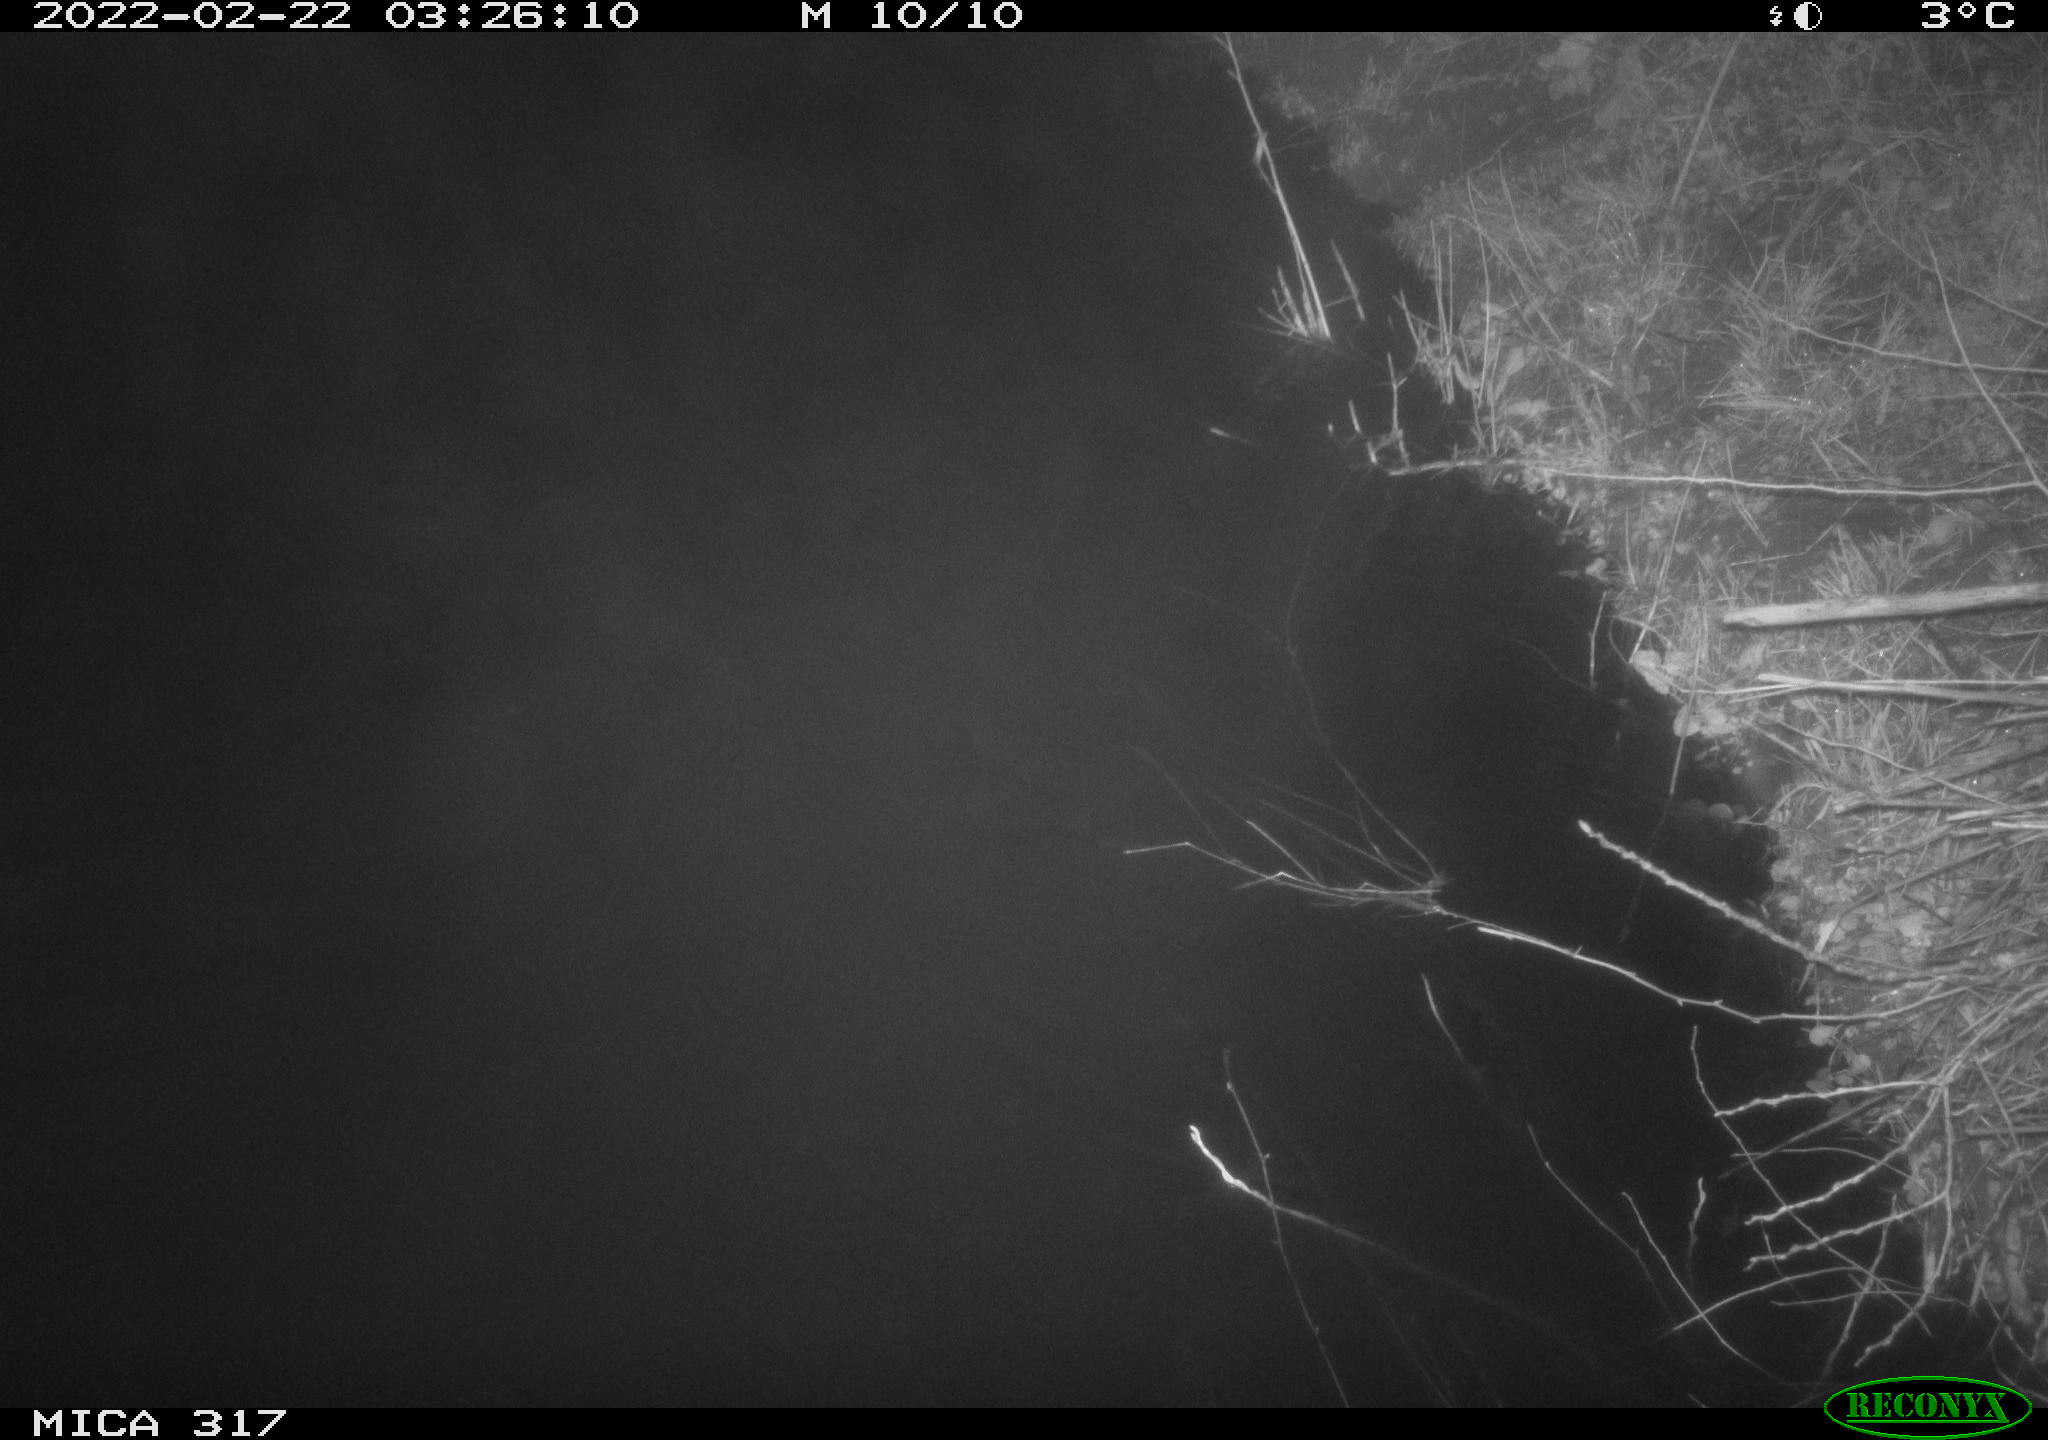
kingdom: Animalia
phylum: Chordata
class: Aves
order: Anseriformes
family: Anatidae
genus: Anas
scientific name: Anas platyrhynchos
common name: Mallard
